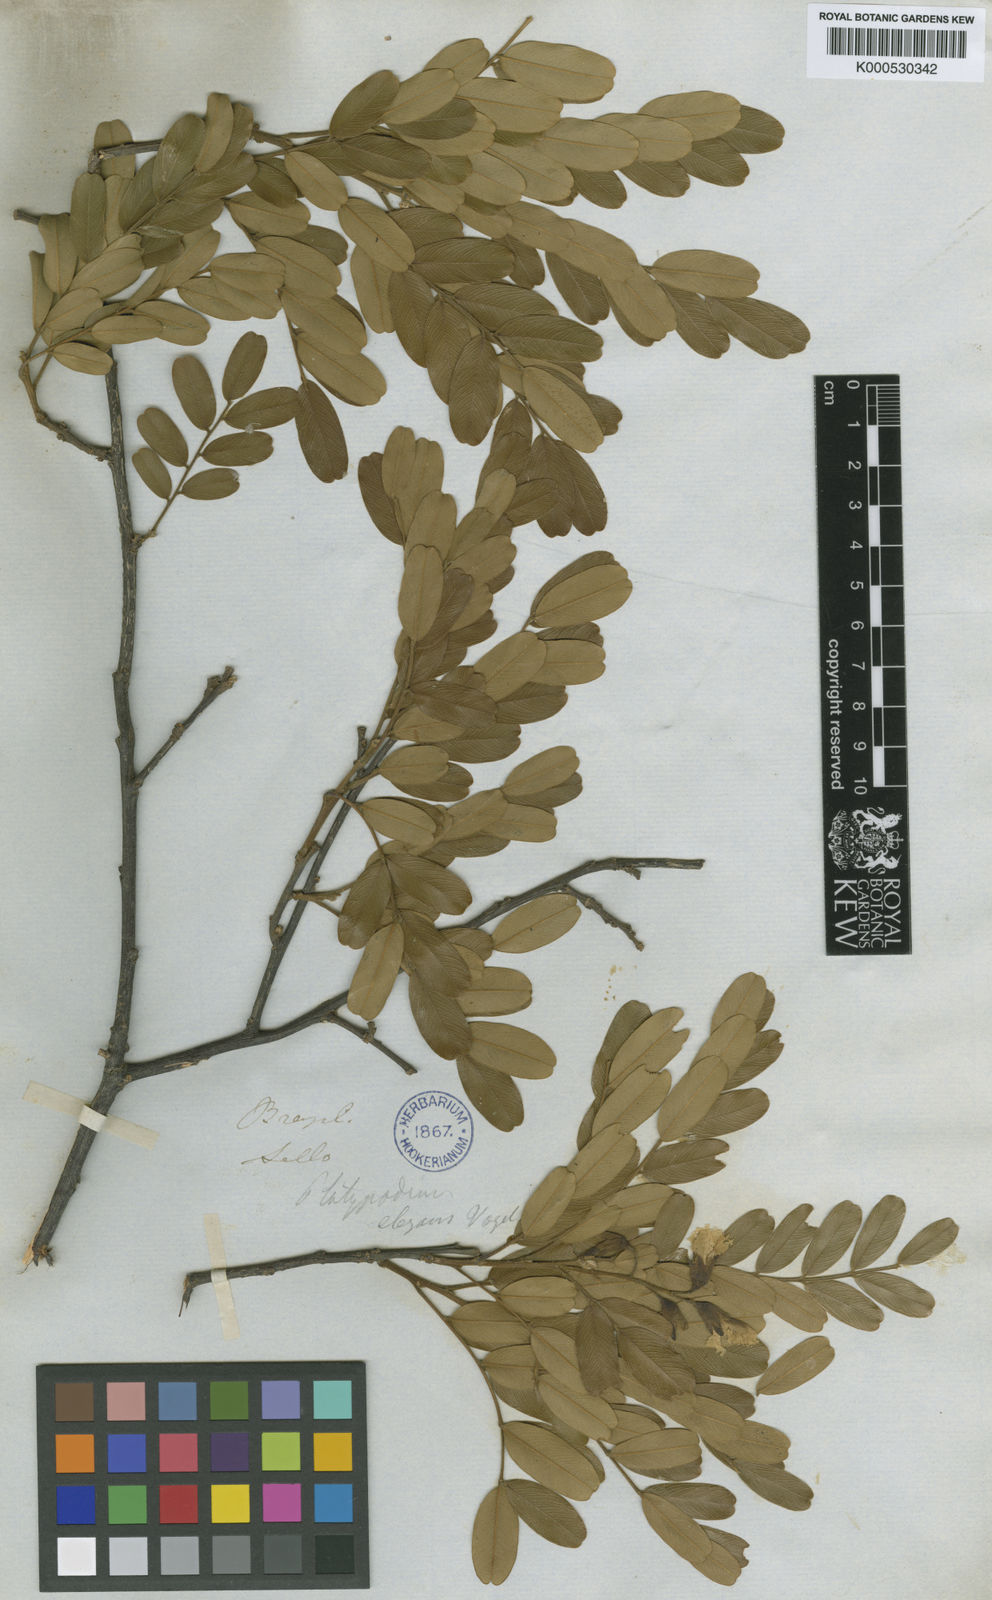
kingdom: Plantae
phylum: Tracheophyta
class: Magnoliopsida
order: Fabales
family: Fabaceae
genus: Platypodium
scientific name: Platypodium elegans
